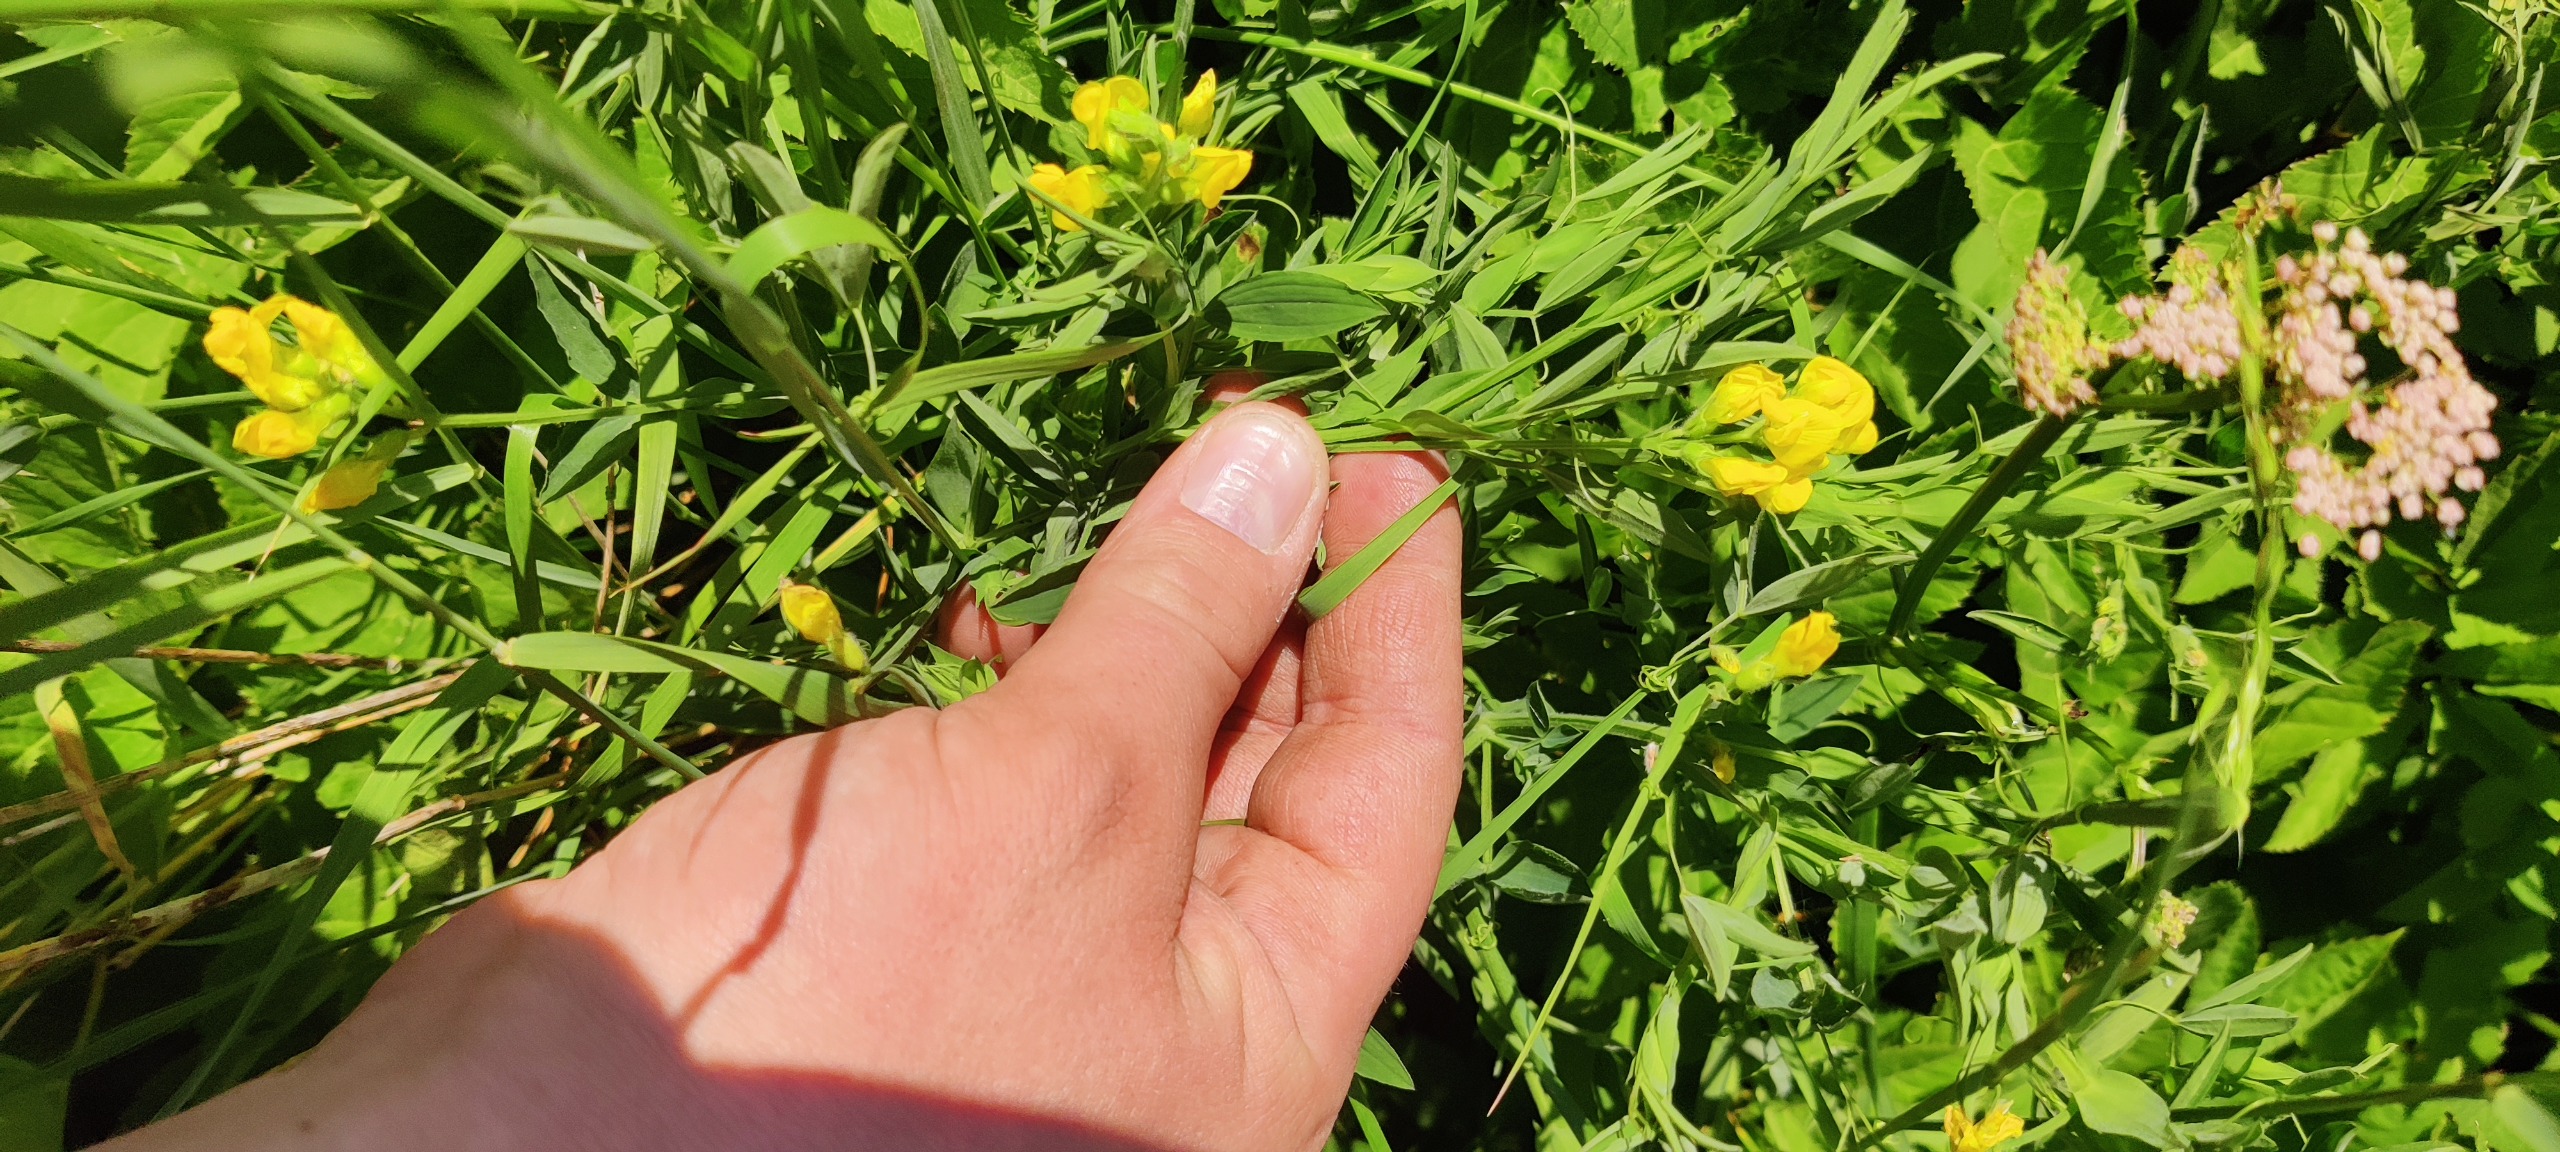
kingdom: Plantae
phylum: Tracheophyta
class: Magnoliopsida
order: Fabales
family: Fabaceae
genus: Lathyrus
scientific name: Lathyrus pratensis
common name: Gul fladbælg
